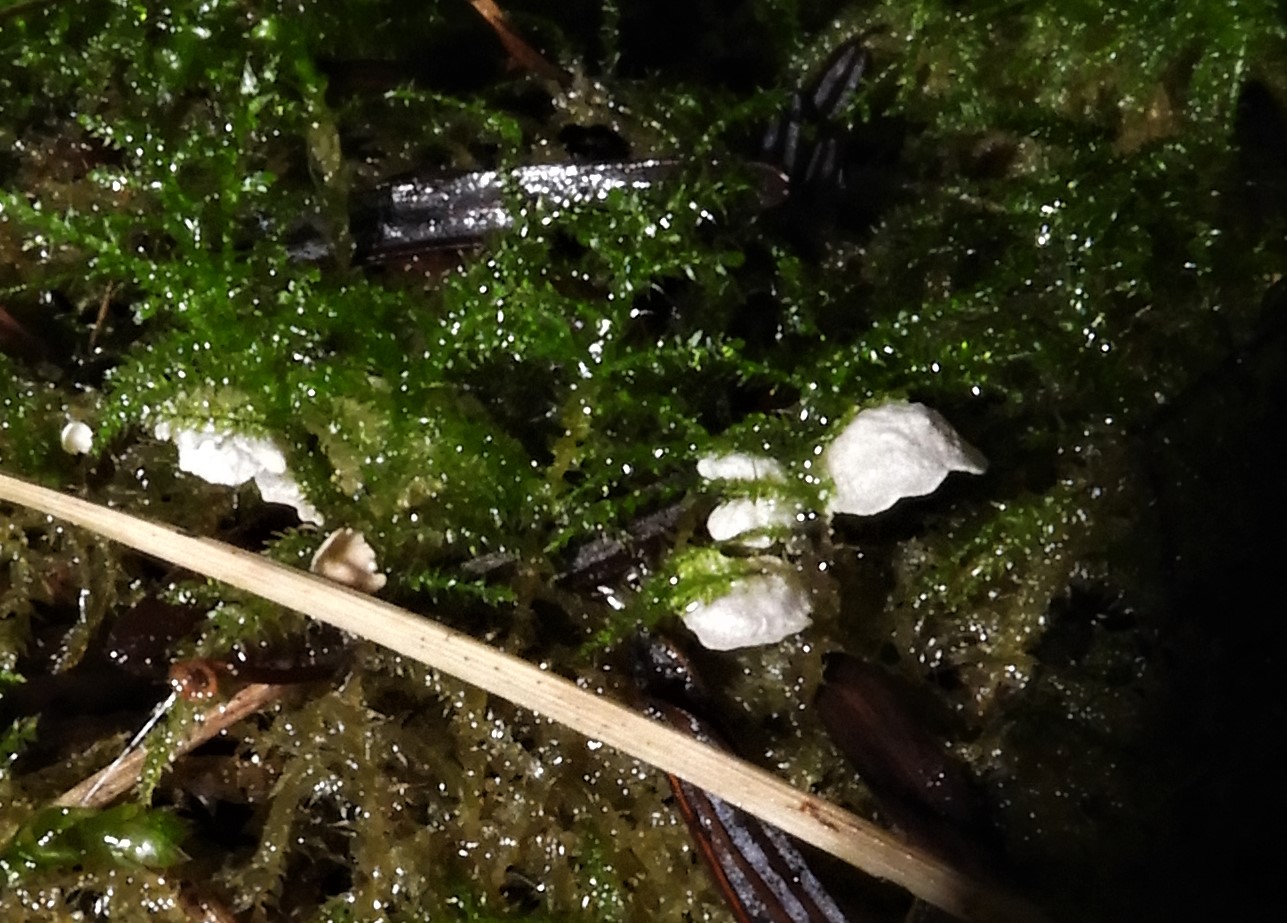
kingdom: Fungi
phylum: Basidiomycota
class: Agaricomycetes
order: Agaricales
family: Hygrophoraceae
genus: Arrhenia
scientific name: Arrhenia retiruga
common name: lille fontænehat
